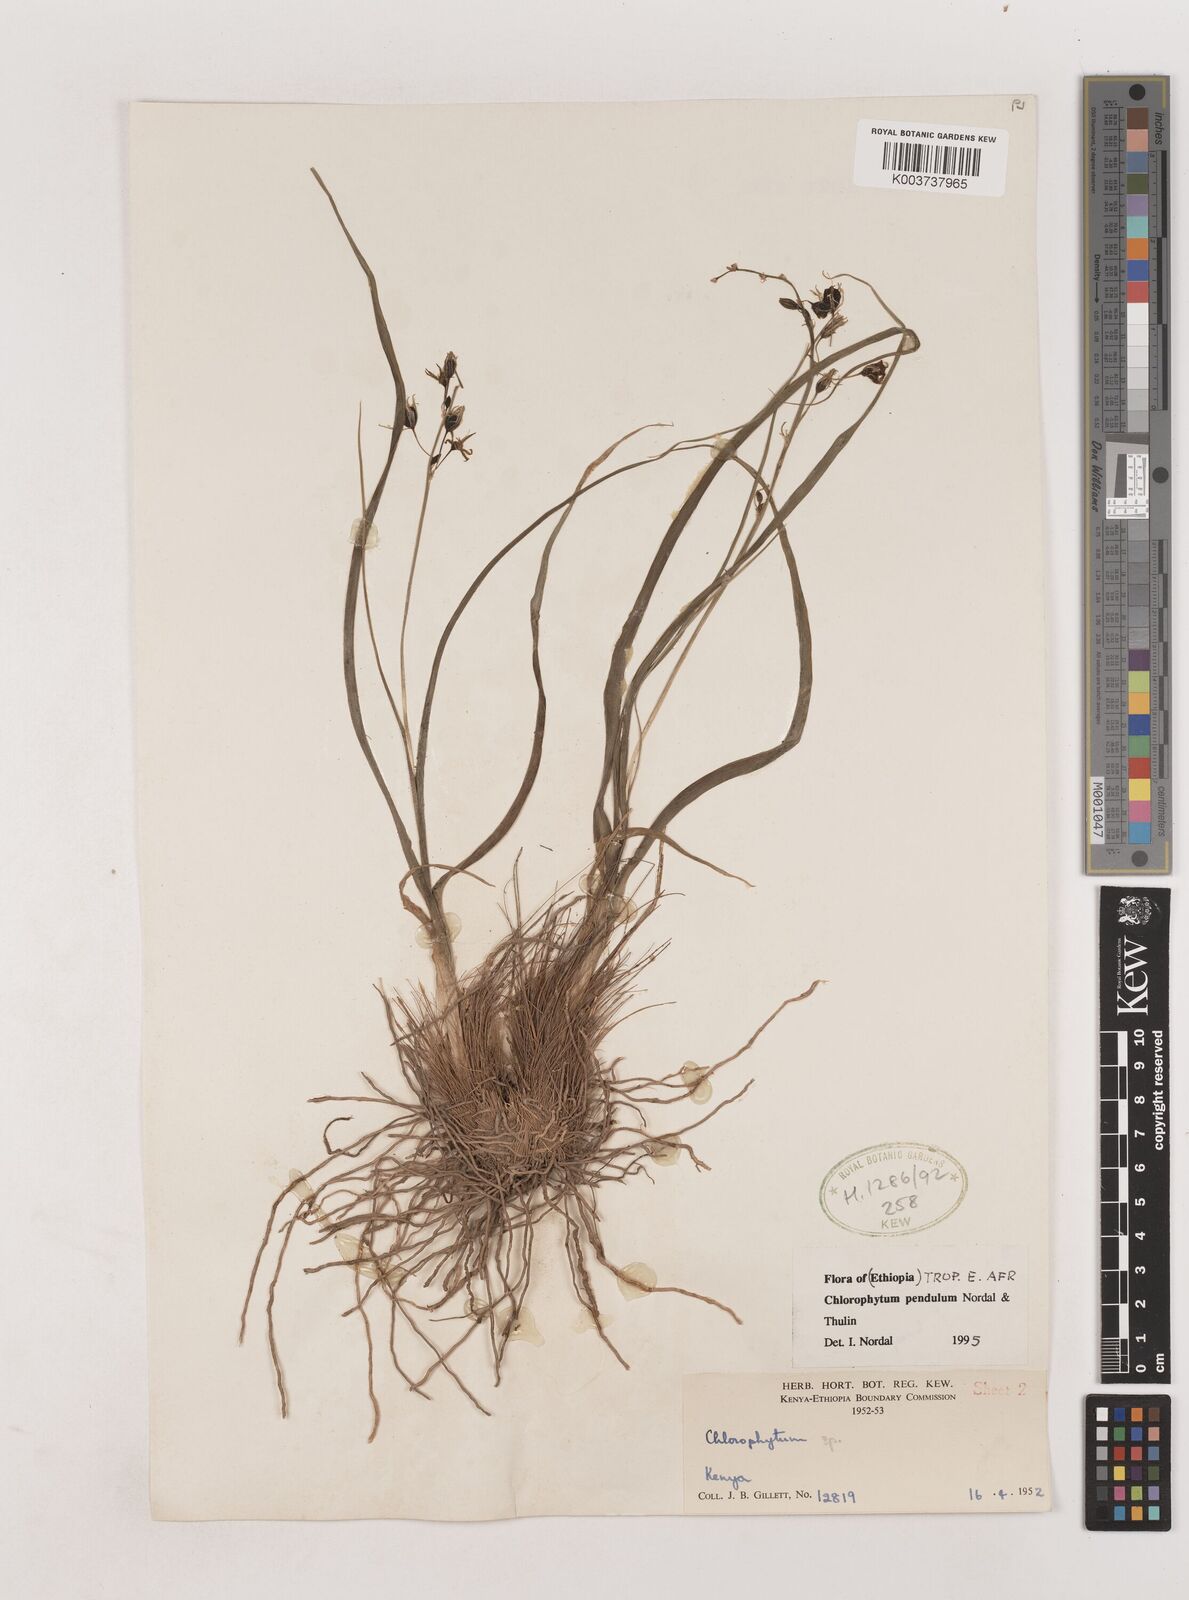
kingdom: Plantae
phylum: Tracheophyta
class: Liliopsida
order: Asparagales
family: Asparagaceae
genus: Chlorophytum
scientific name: Chlorophytum pendulum
